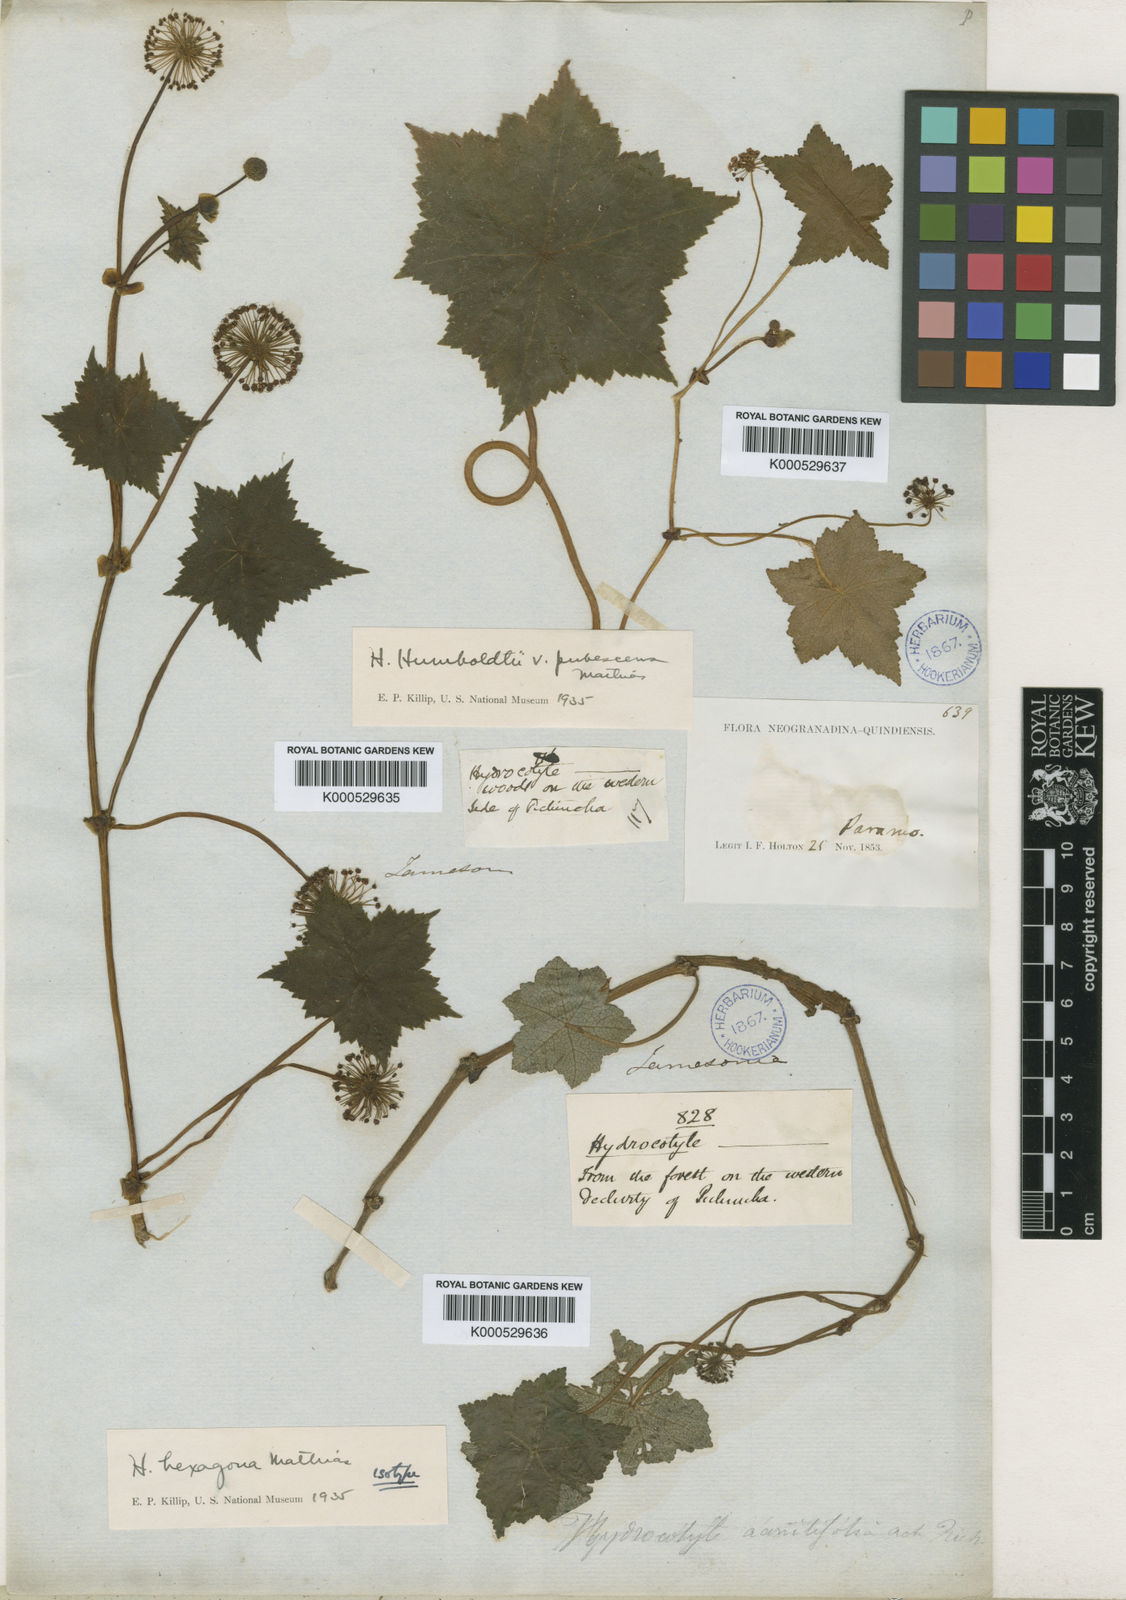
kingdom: Plantae
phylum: Tracheophyta
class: Magnoliopsida
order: Apiales
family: Araliaceae
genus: Hydrocotyle
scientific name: Hydrocotyle hexagona
